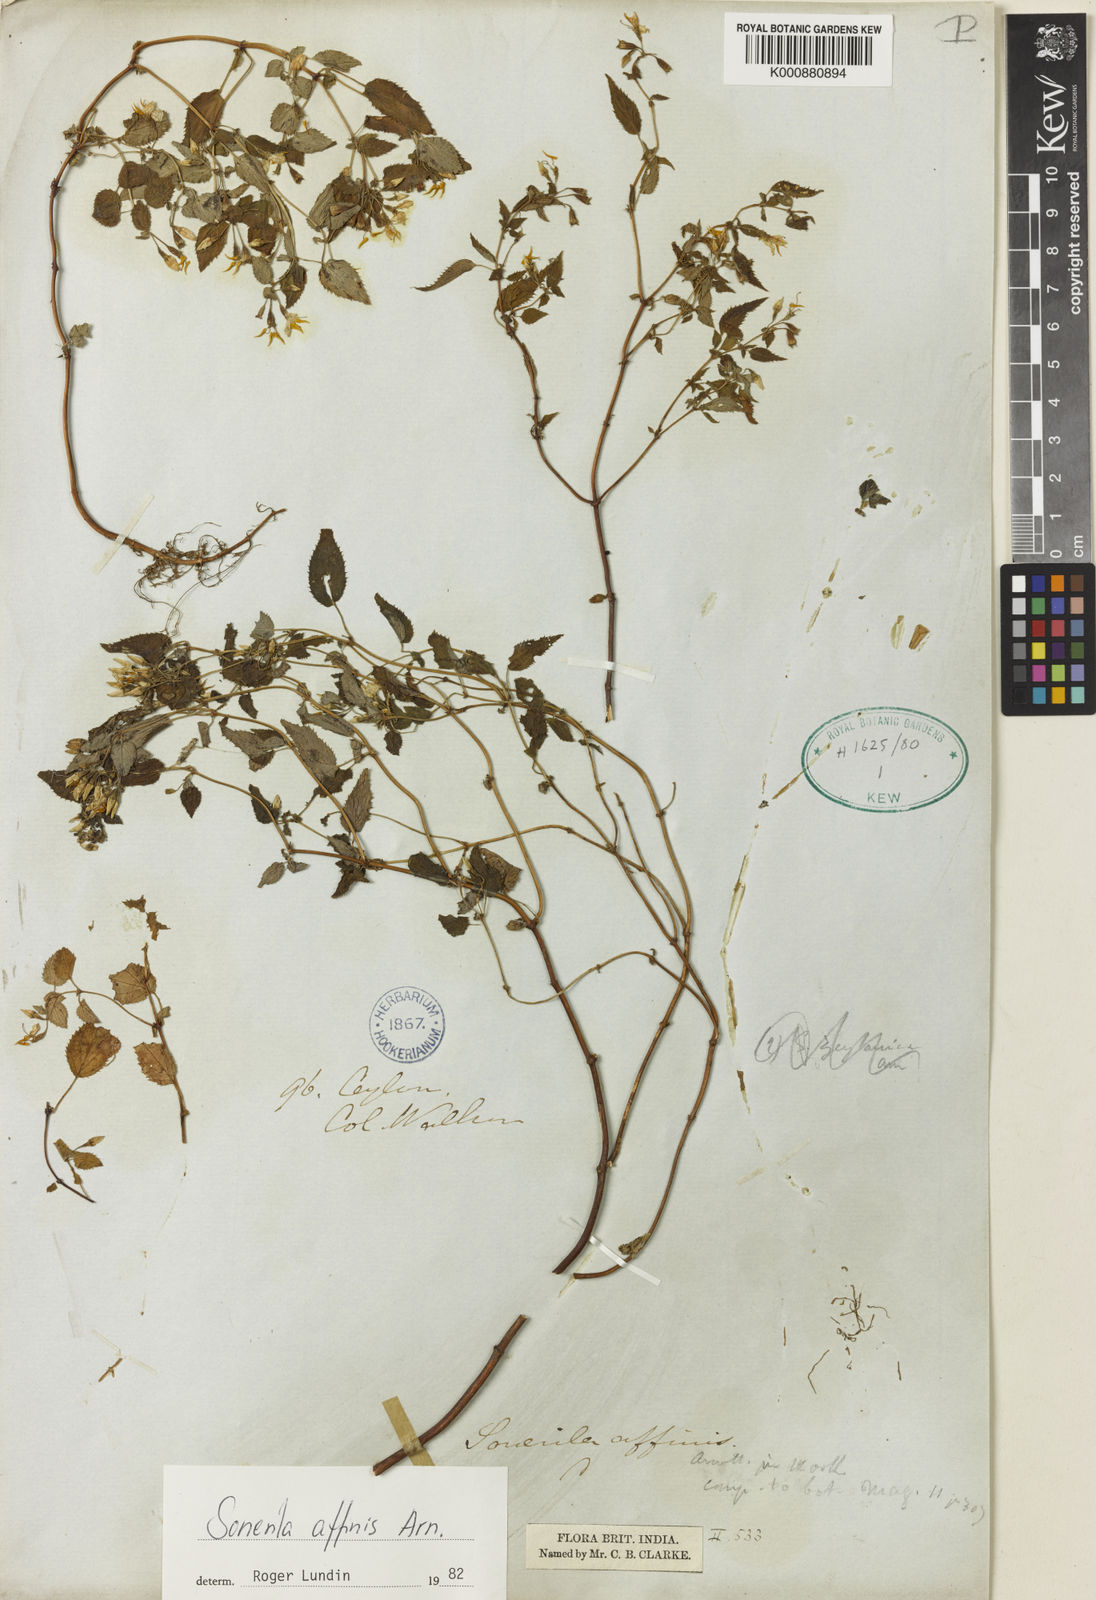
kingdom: Plantae
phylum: Tracheophyta
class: Magnoliopsida
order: Myrtales
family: Melastomataceae
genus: Sonerila
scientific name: Sonerila affinis
